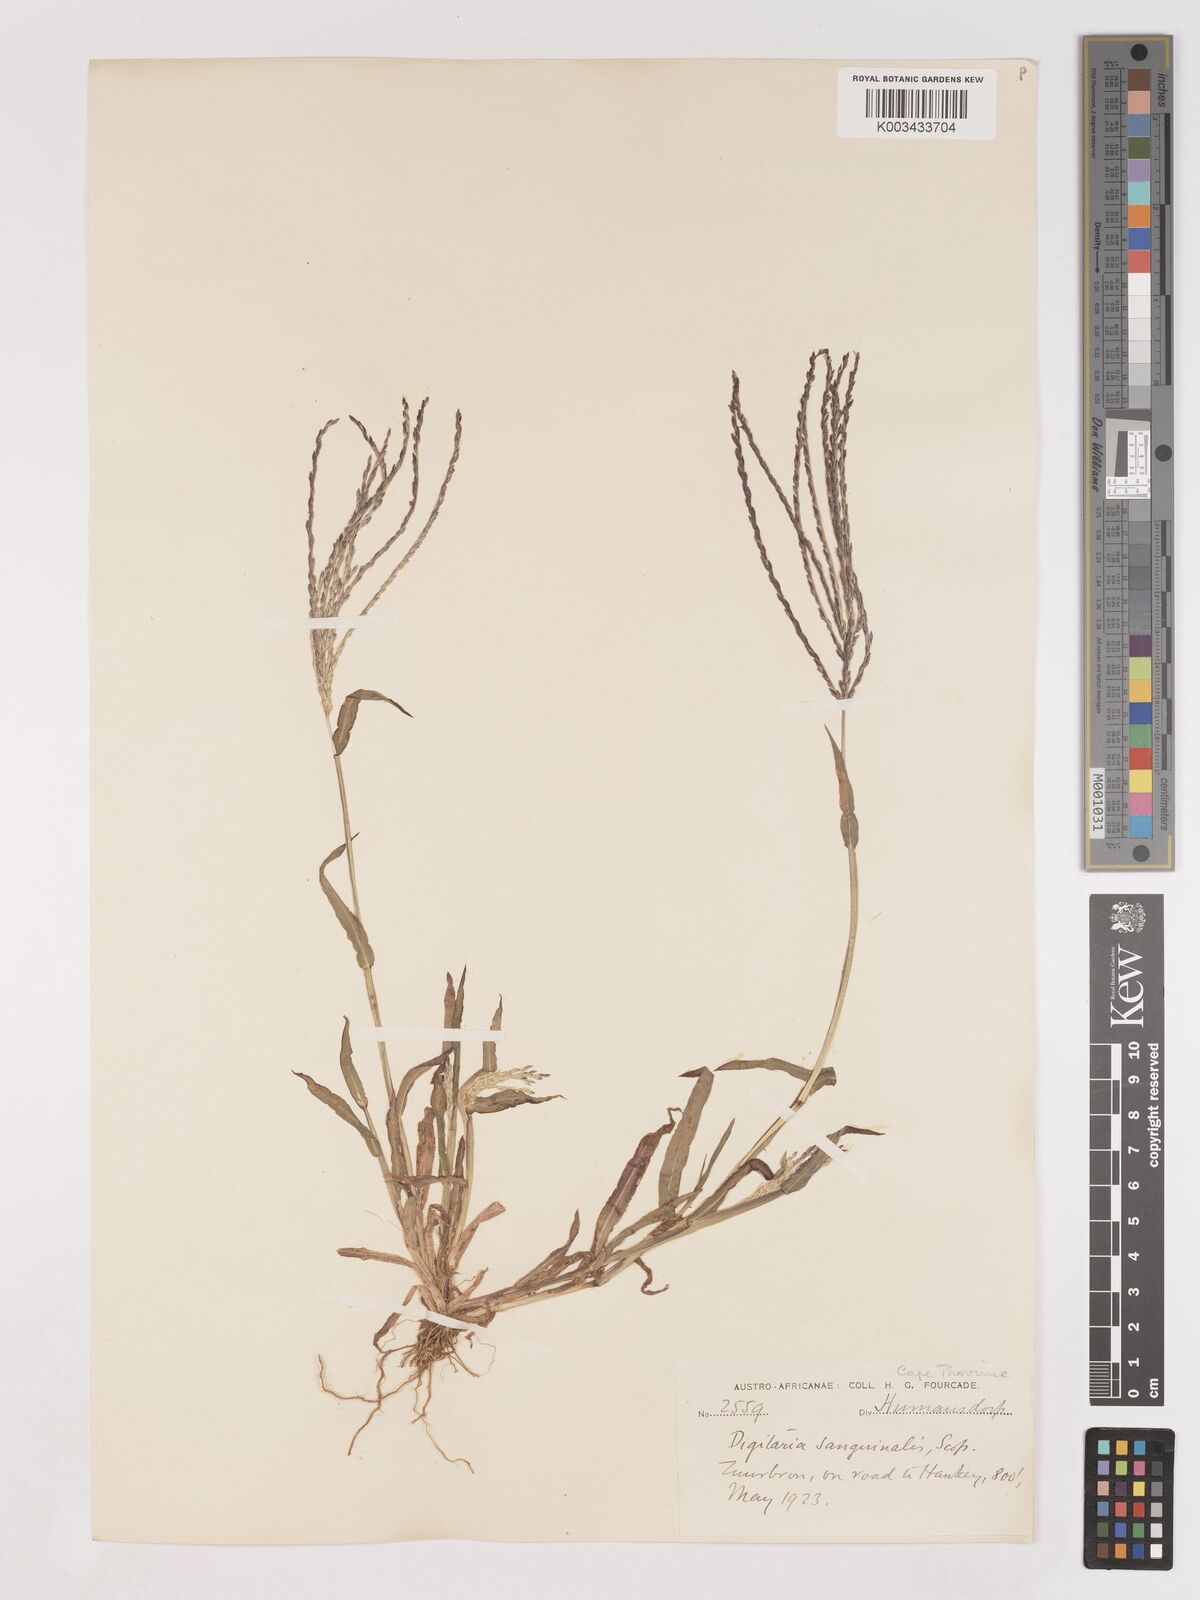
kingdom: Plantae
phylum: Tracheophyta
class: Liliopsida
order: Poales
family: Poaceae
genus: Digitaria
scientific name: Digitaria sanguinalis
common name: Hairy crabgrass
